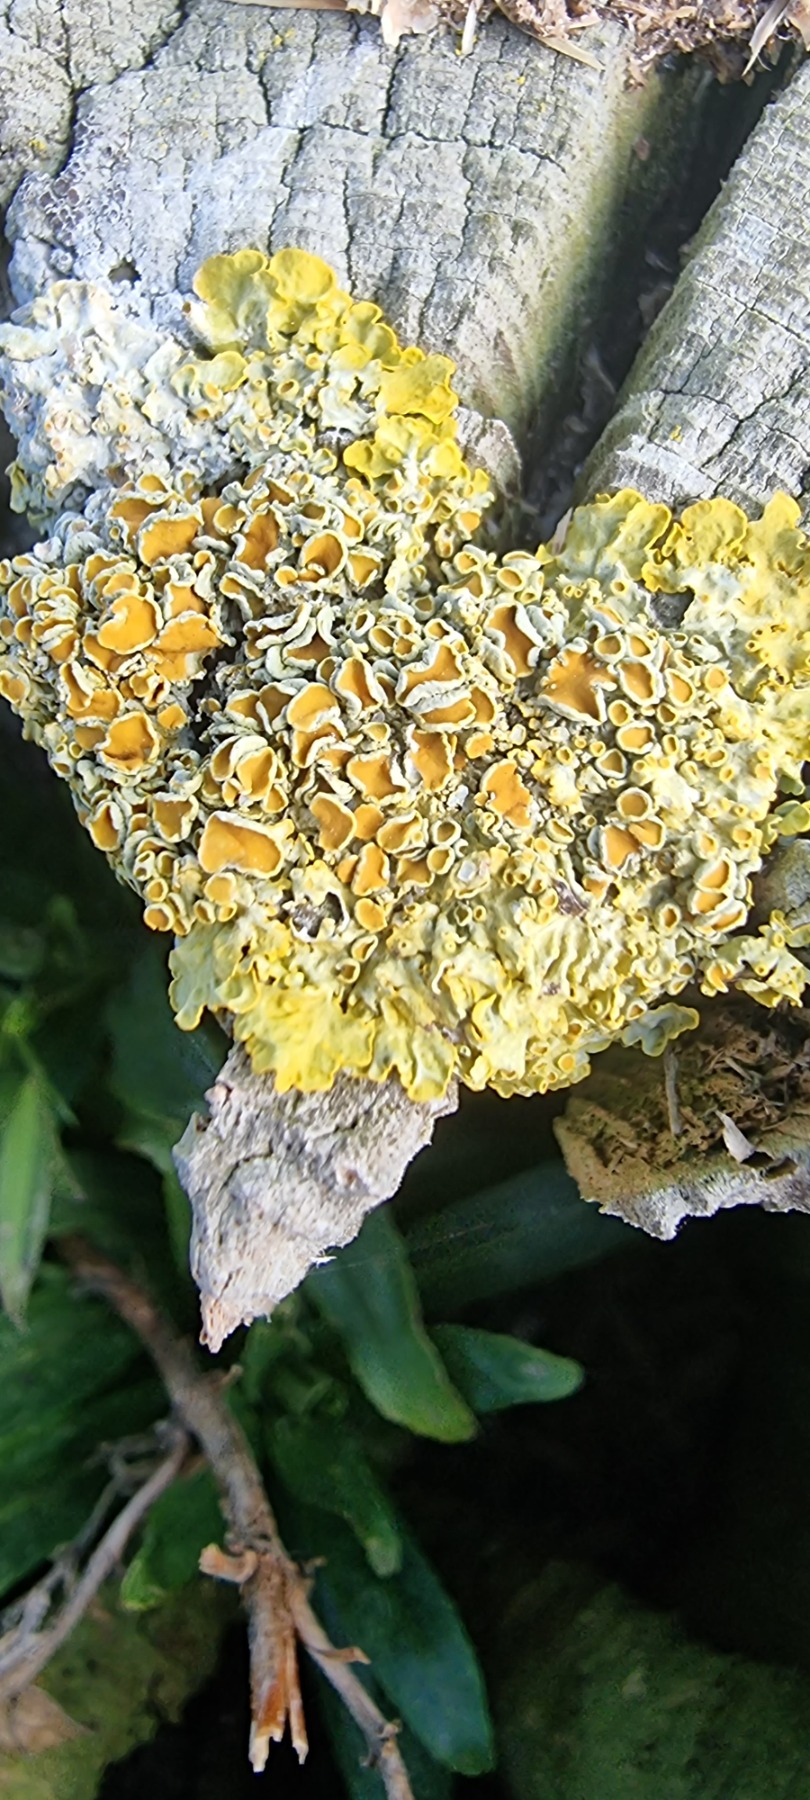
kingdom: Fungi
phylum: Ascomycota
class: Lecanoromycetes
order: Teloschistales
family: Teloschistaceae
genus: Xanthoria
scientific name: Xanthoria parietina
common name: Almindelig væggelav
